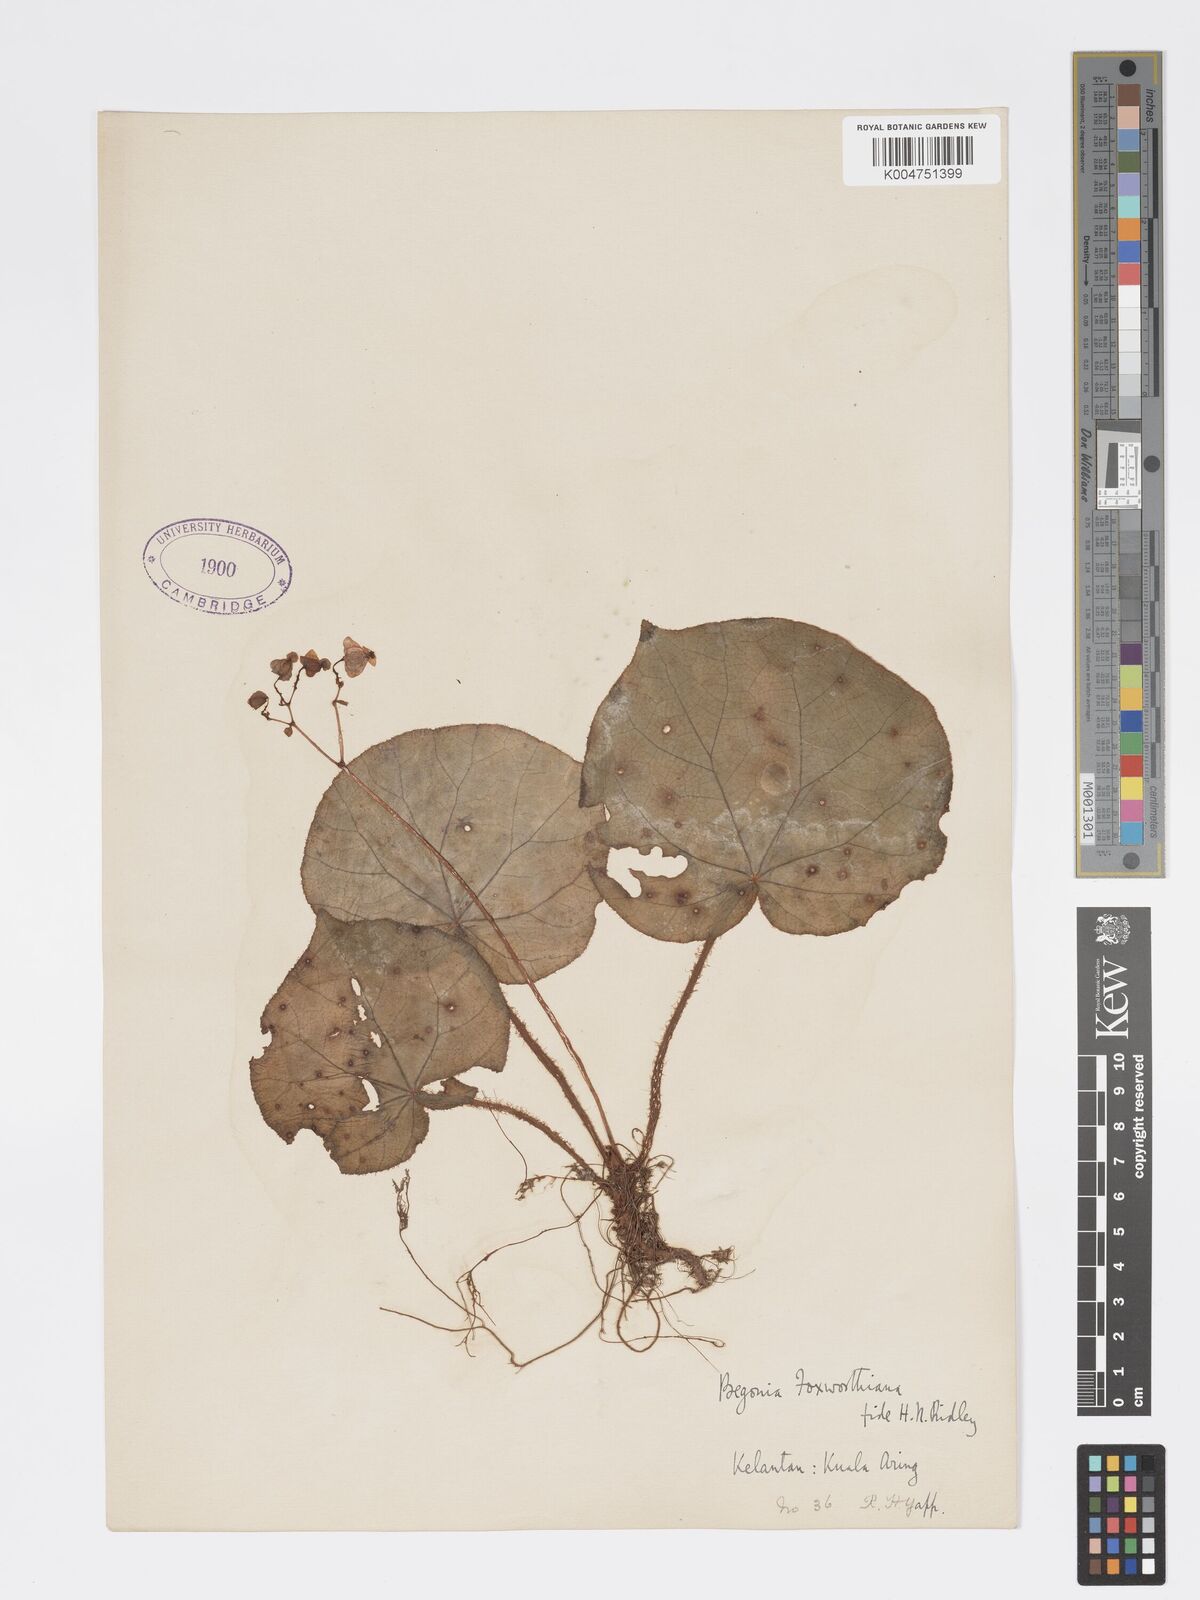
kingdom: Plantae
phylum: Tracheophyta
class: Magnoliopsida
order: Cucurbitales
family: Begoniaceae
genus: Begonia
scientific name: Begonia foxworthyi
